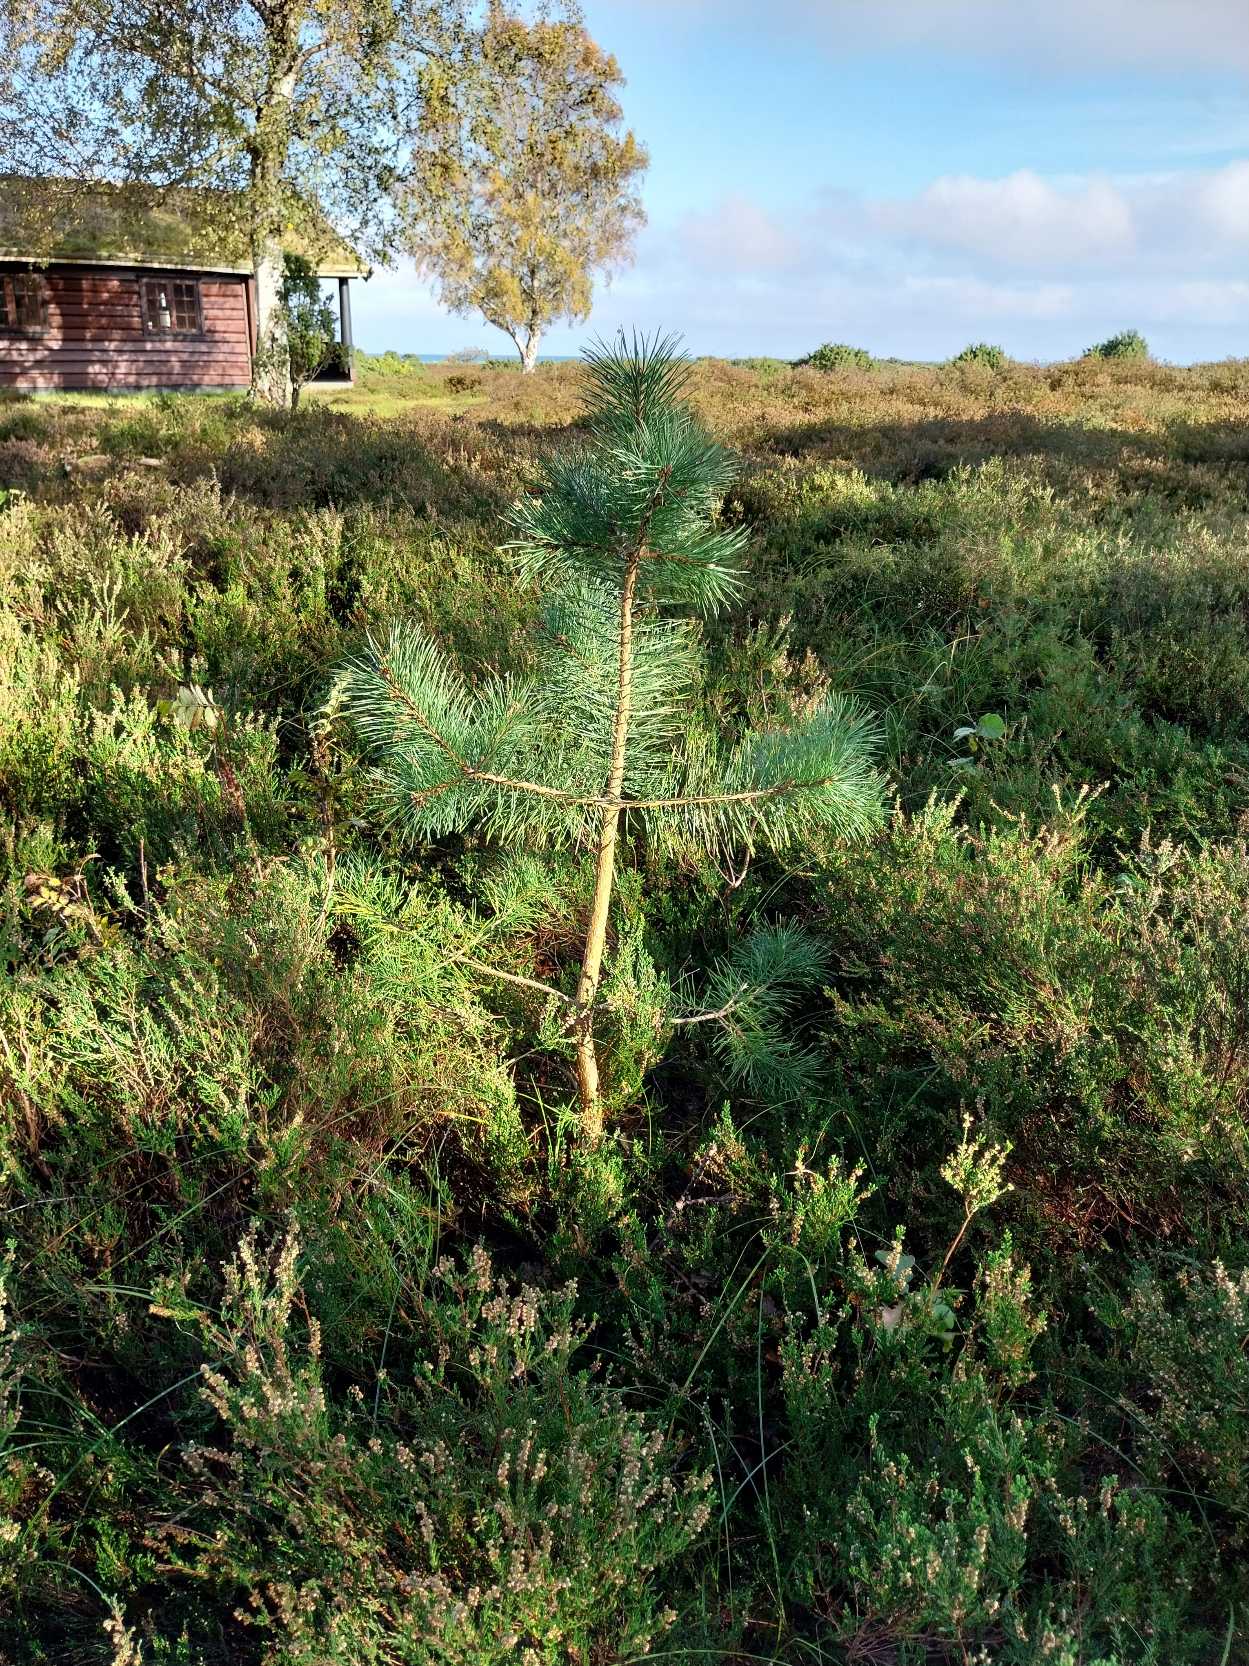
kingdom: Plantae
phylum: Tracheophyta
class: Pinopsida
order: Pinales
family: Pinaceae
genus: Pinus
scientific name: Pinus sylvestris
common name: Skov-fyr
